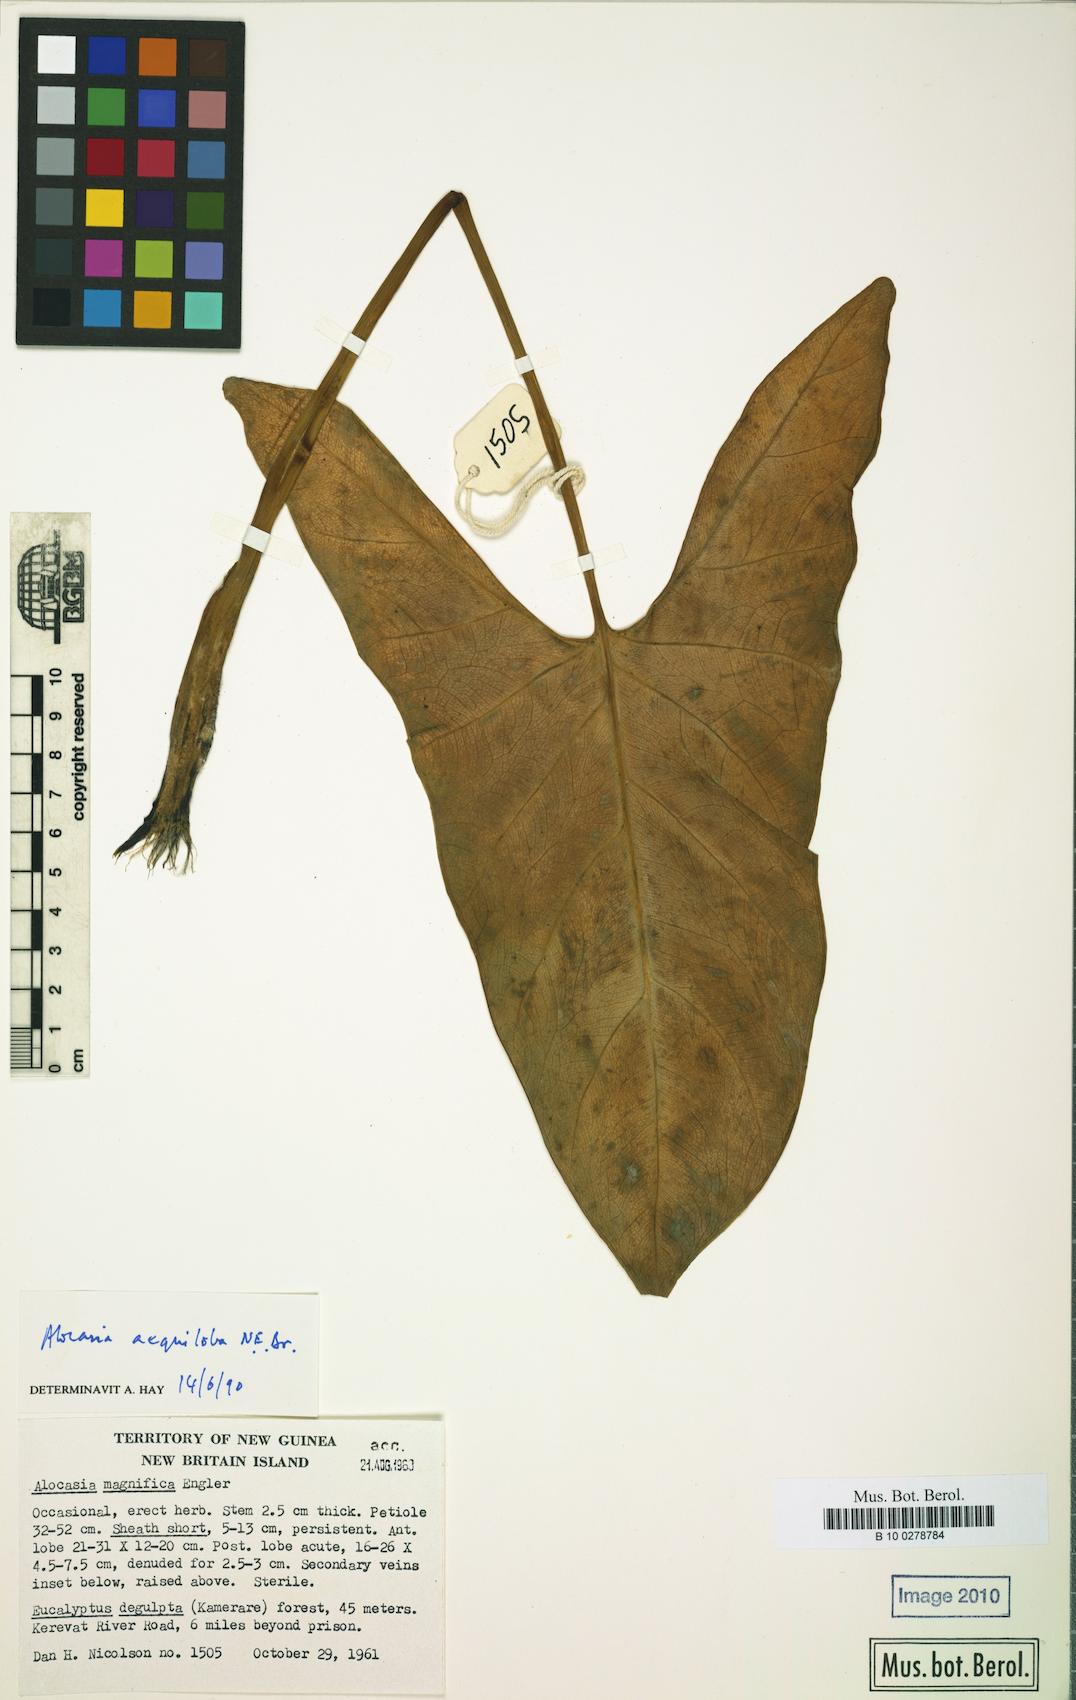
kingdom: Plantae
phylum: Tracheophyta
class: Liliopsida
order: Alismatales
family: Araceae
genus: Alocasia
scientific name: Alocasia aequiloba
